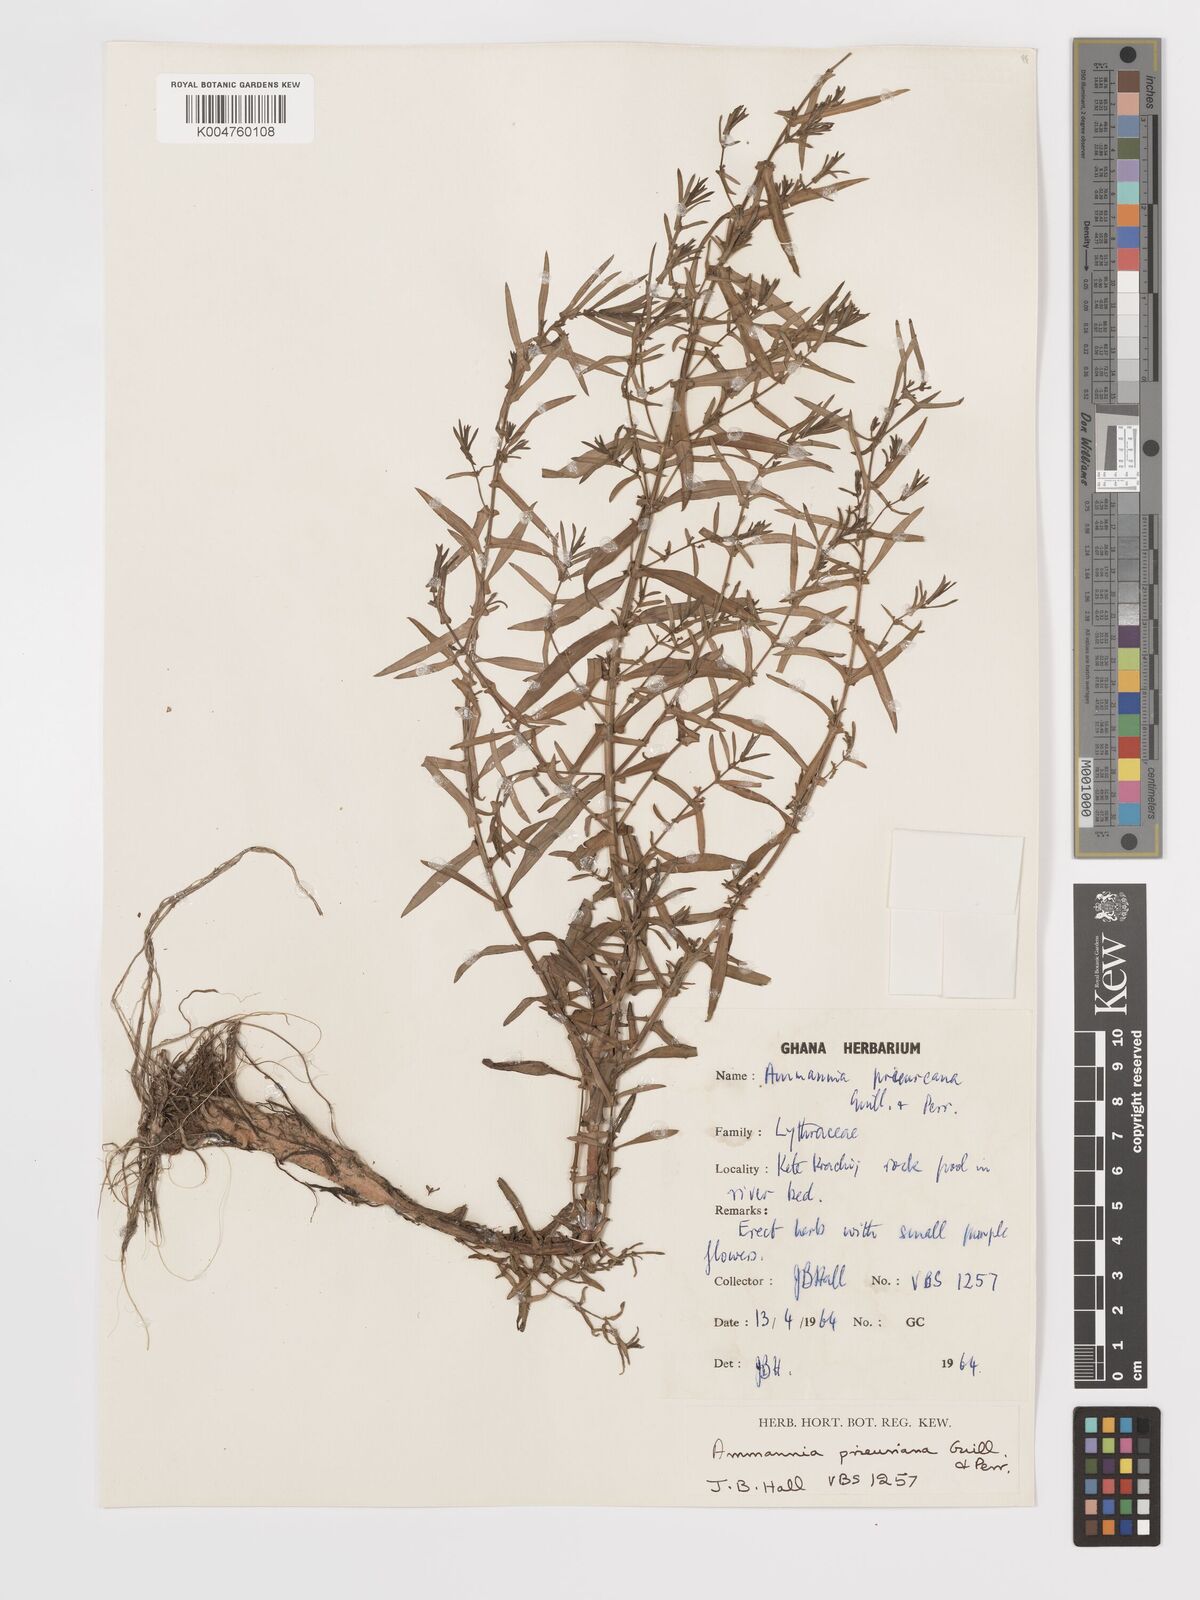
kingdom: Plantae
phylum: Tracheophyta
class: Magnoliopsida
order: Myrtales
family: Lythraceae
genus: Ammannia
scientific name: Ammannia prieuriana
